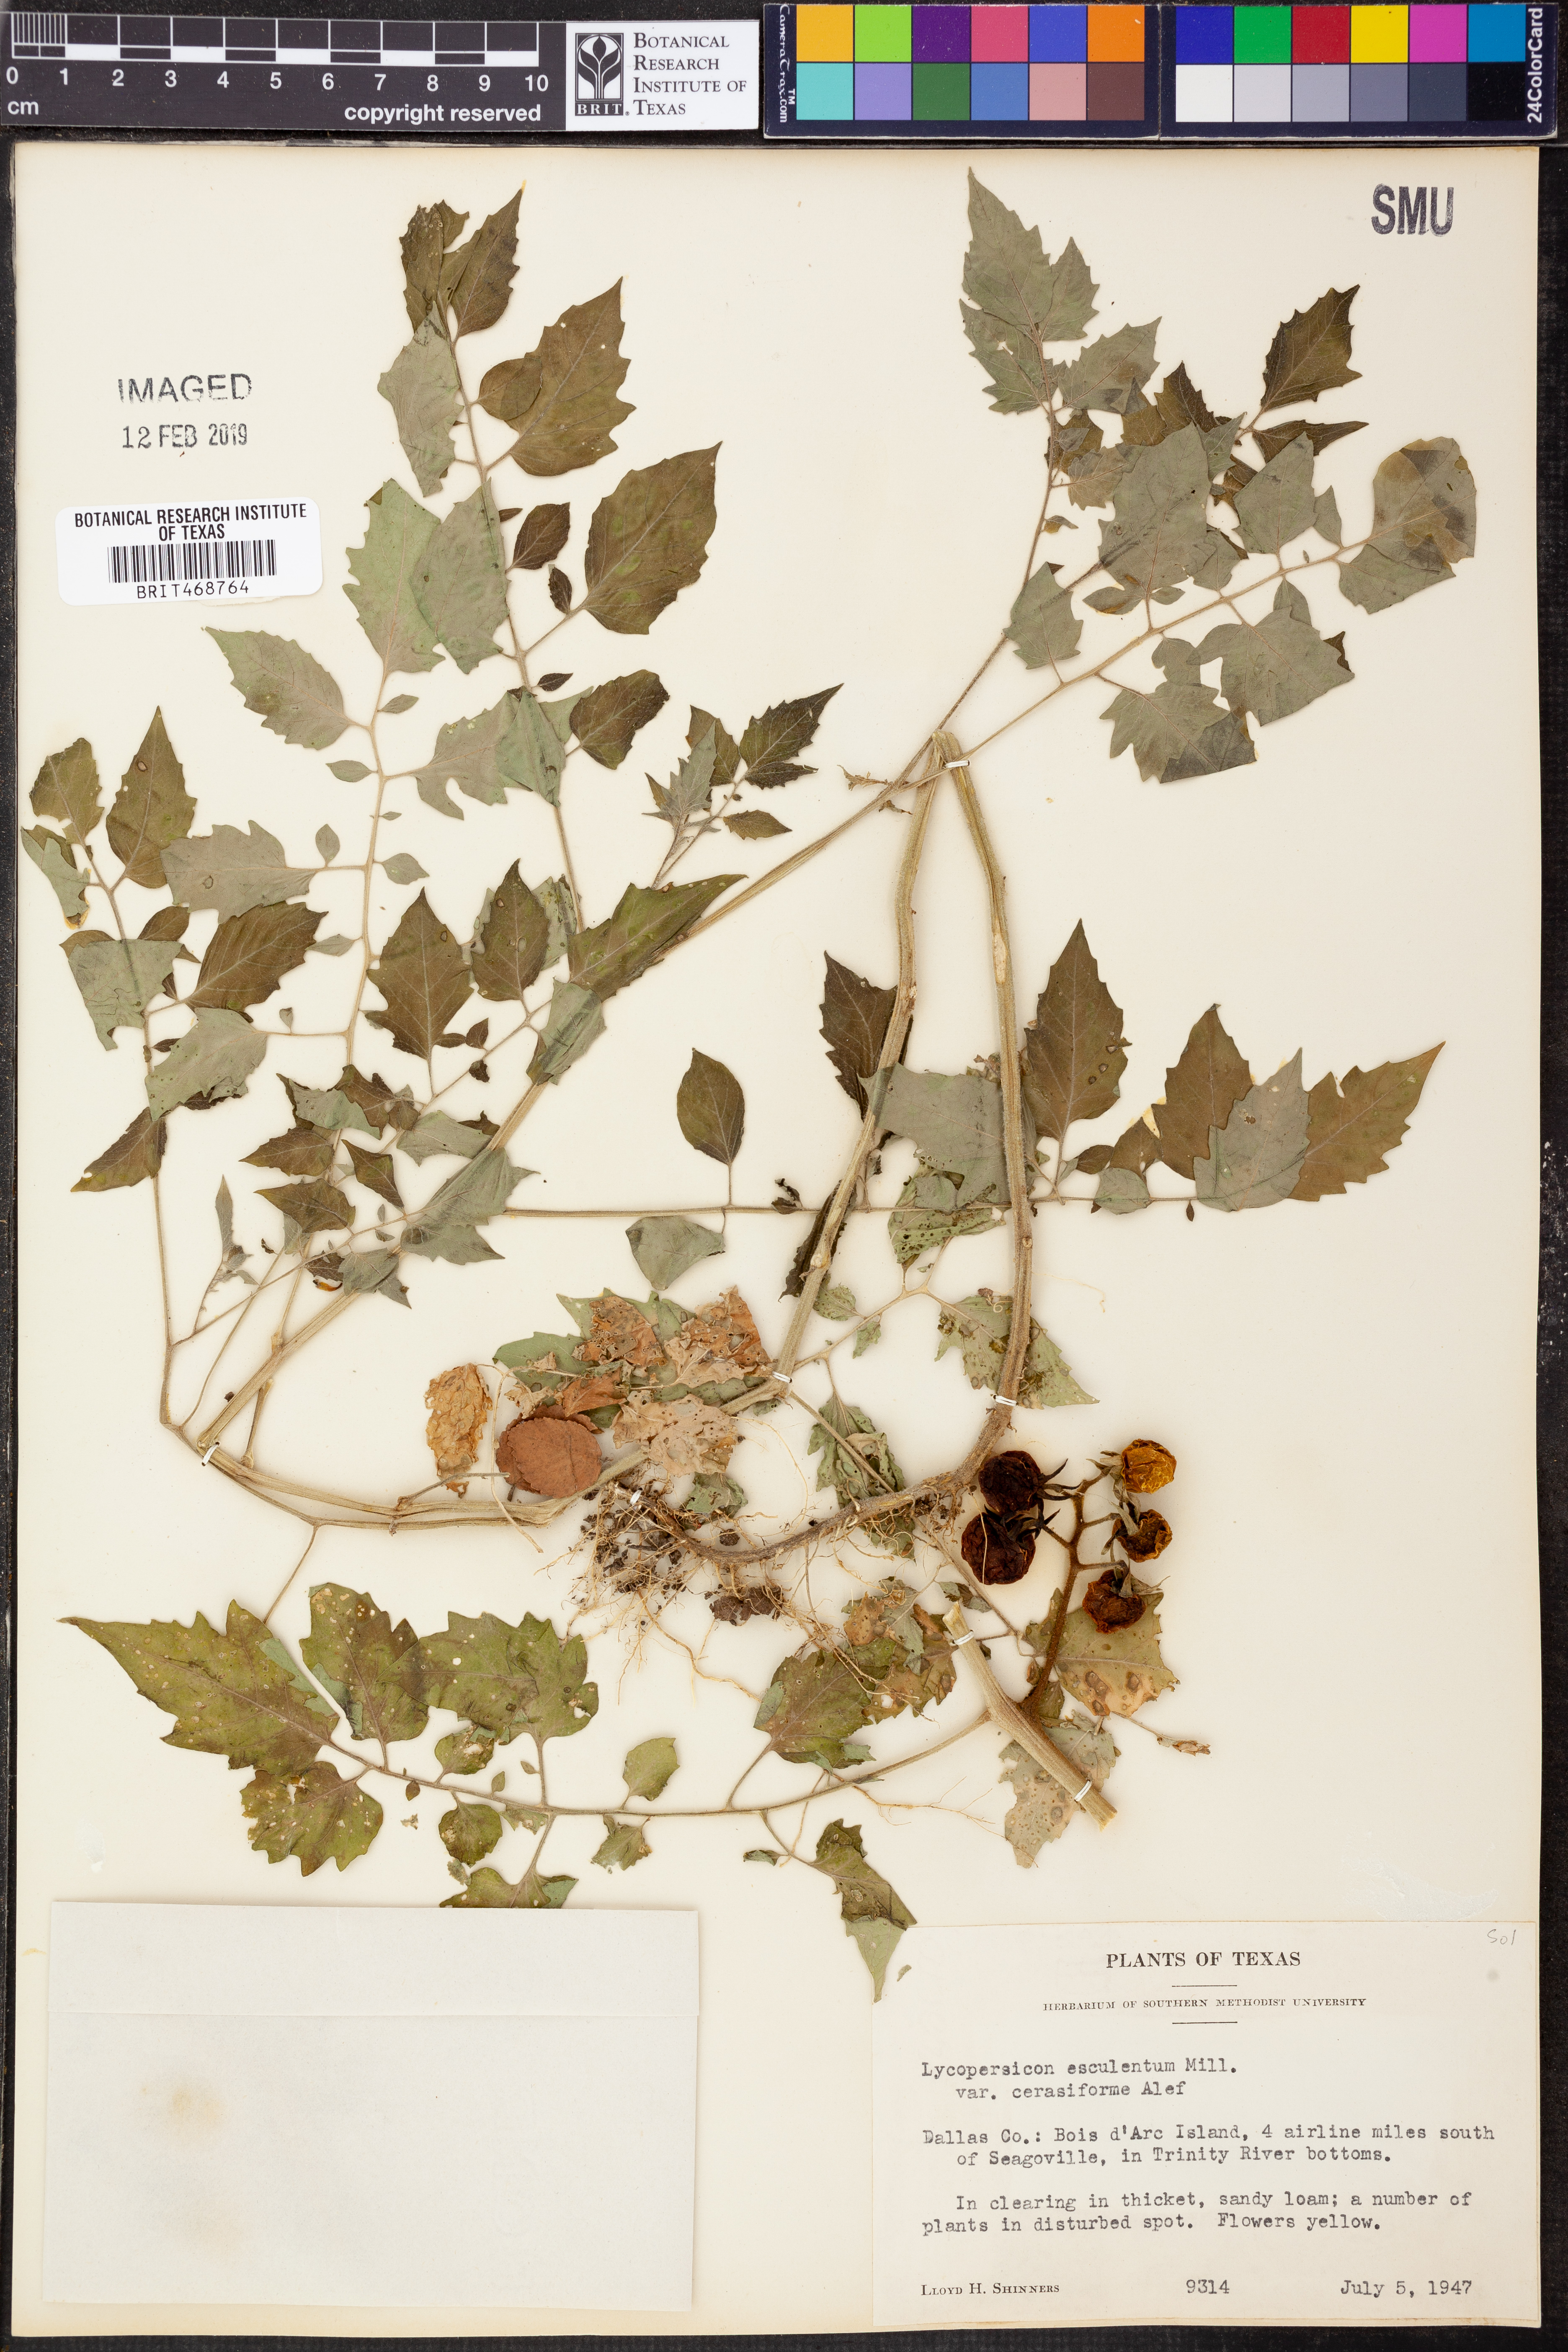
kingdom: Plantae
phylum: Tracheophyta
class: Magnoliopsida
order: Solanales
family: Solanaceae
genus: Solanum
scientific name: Solanum lycopersicum
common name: Garden tomato
